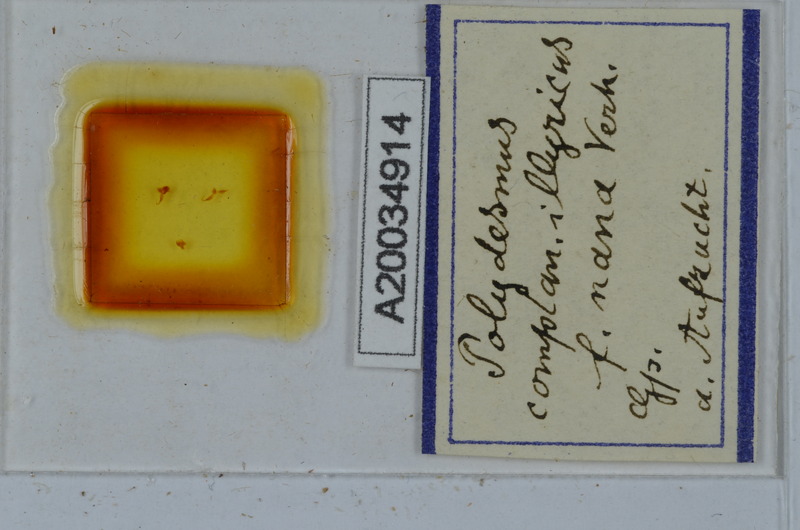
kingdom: Animalia
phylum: Arthropoda
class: Diplopoda
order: Polydesmida
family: Polydesmidae
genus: Polydesmus
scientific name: Polydesmus complanatus
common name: Flat-backed millipede
